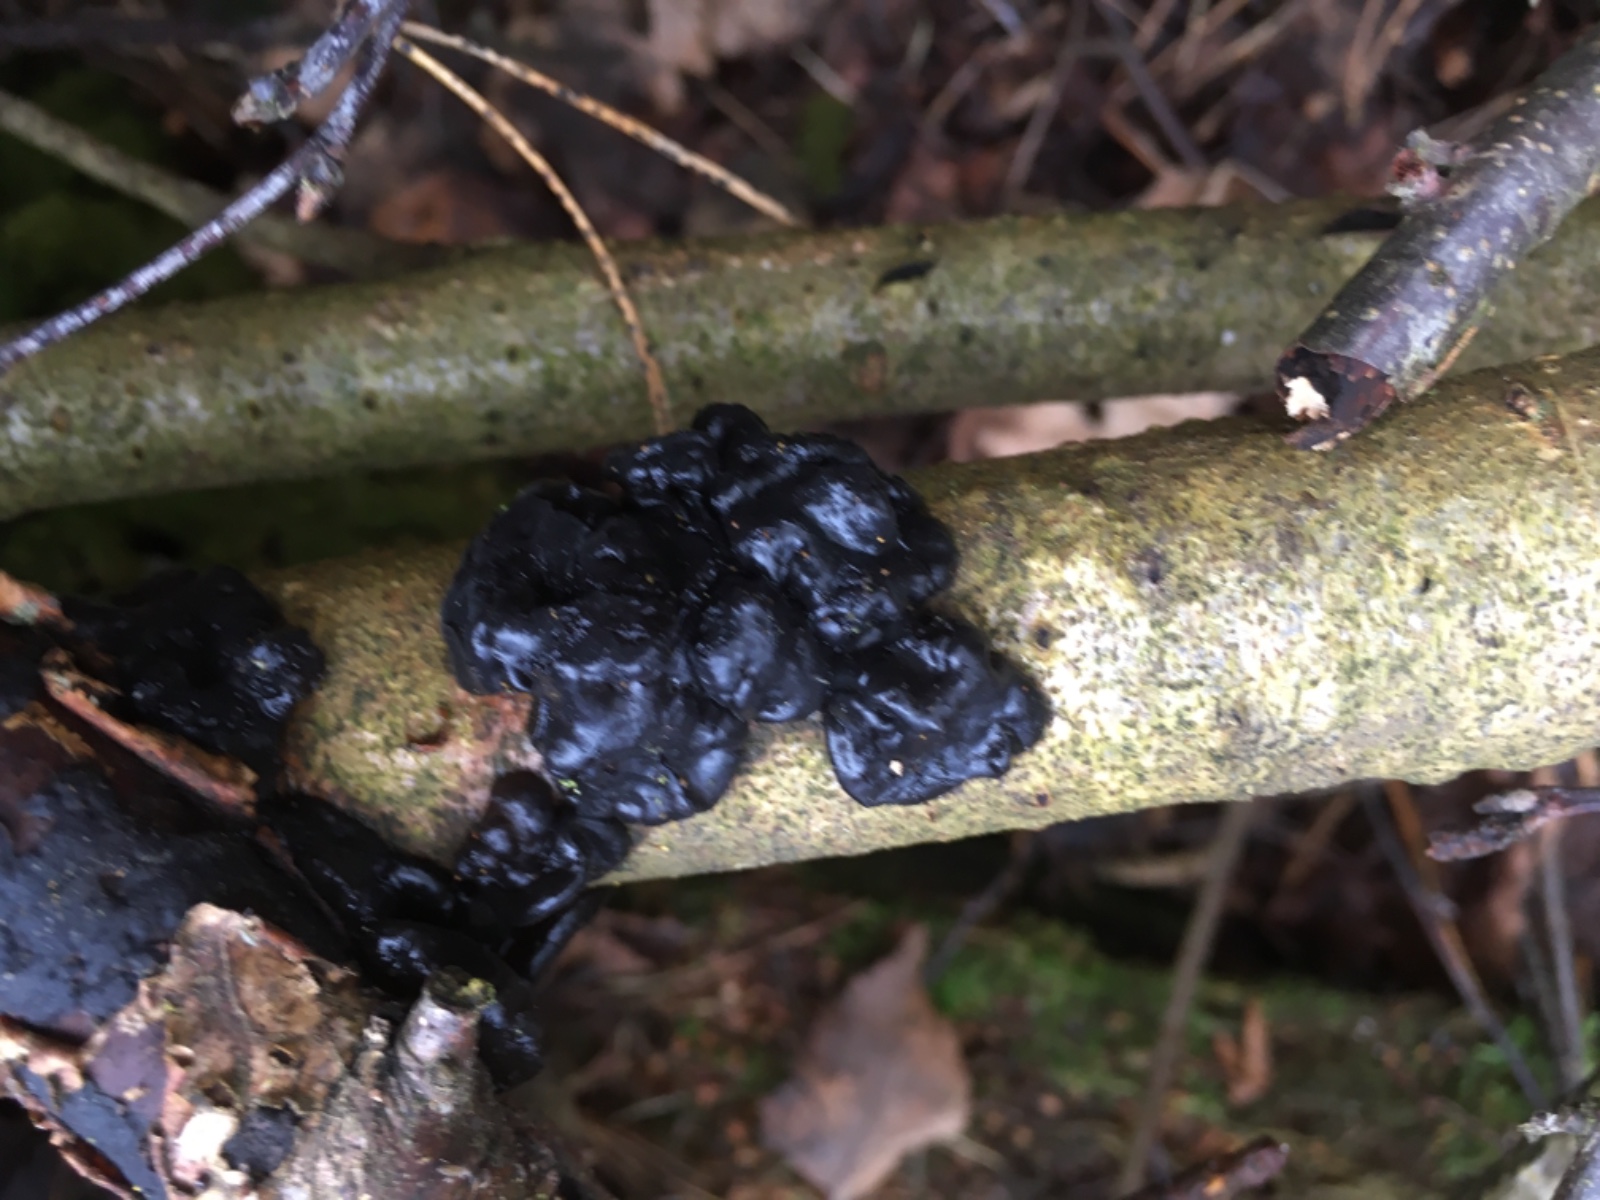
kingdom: Fungi
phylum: Basidiomycota
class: Agaricomycetes
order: Auriculariales
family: Auriculariaceae
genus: Exidia
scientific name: Exidia nigricans
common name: almindelig bævretop
